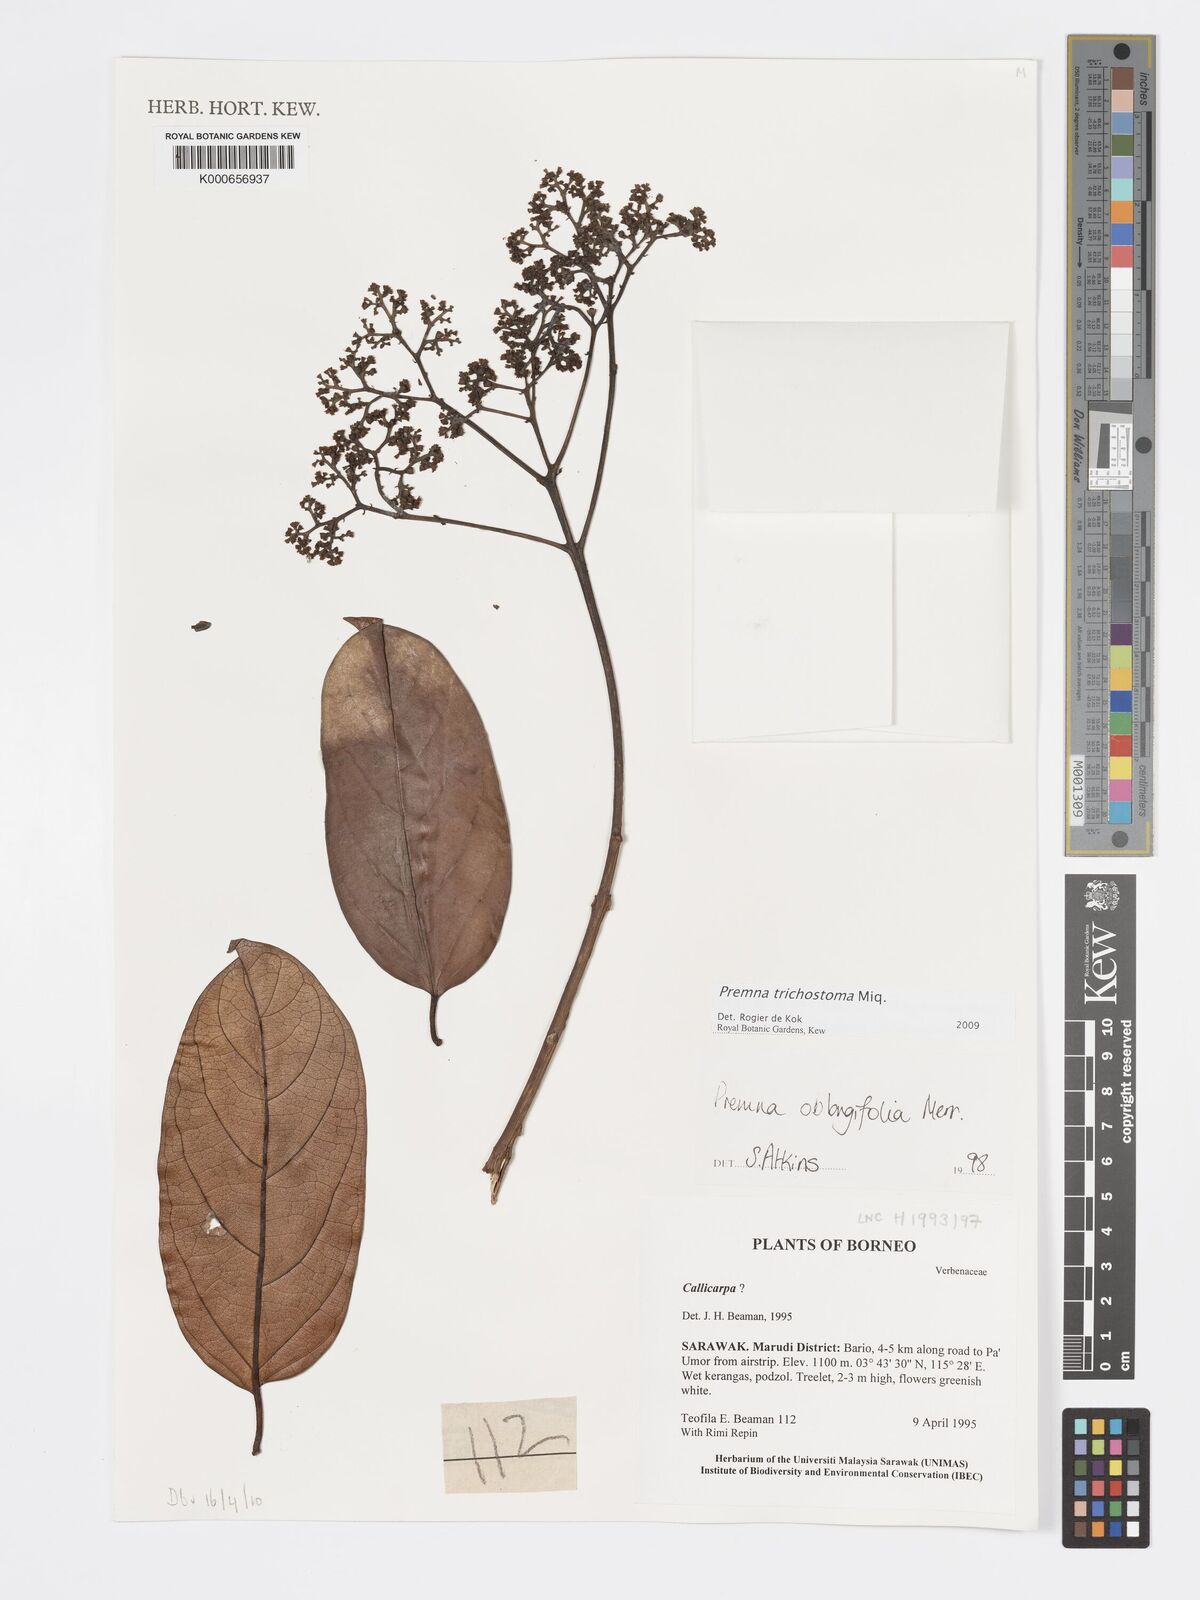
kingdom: Plantae
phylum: Tracheophyta
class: Magnoliopsida
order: Lamiales
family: Lamiaceae
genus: Premna
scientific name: Premna trichostoma
